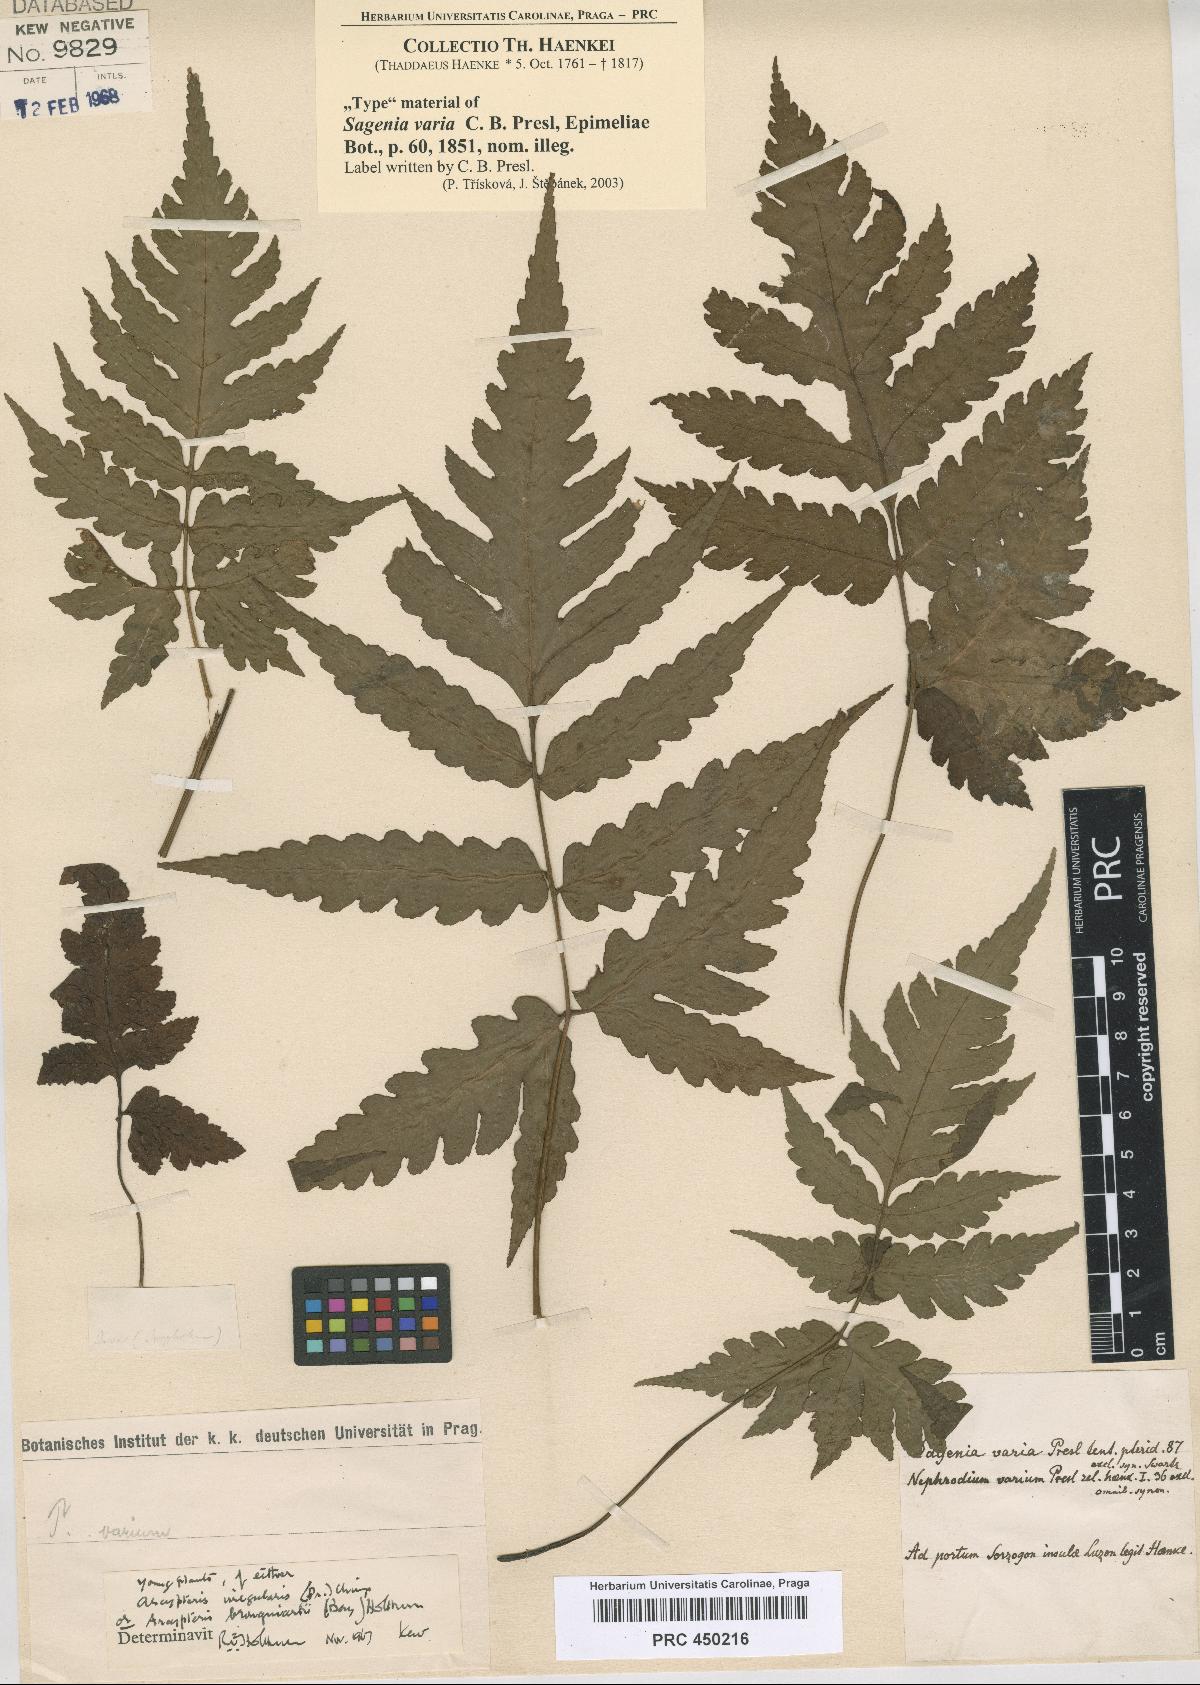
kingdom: Plantae
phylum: Tracheophyta
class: Polypodiopsida
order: Polypodiales
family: Tectariaceae
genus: Tectaria
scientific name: Tectaria Sagenia varia
